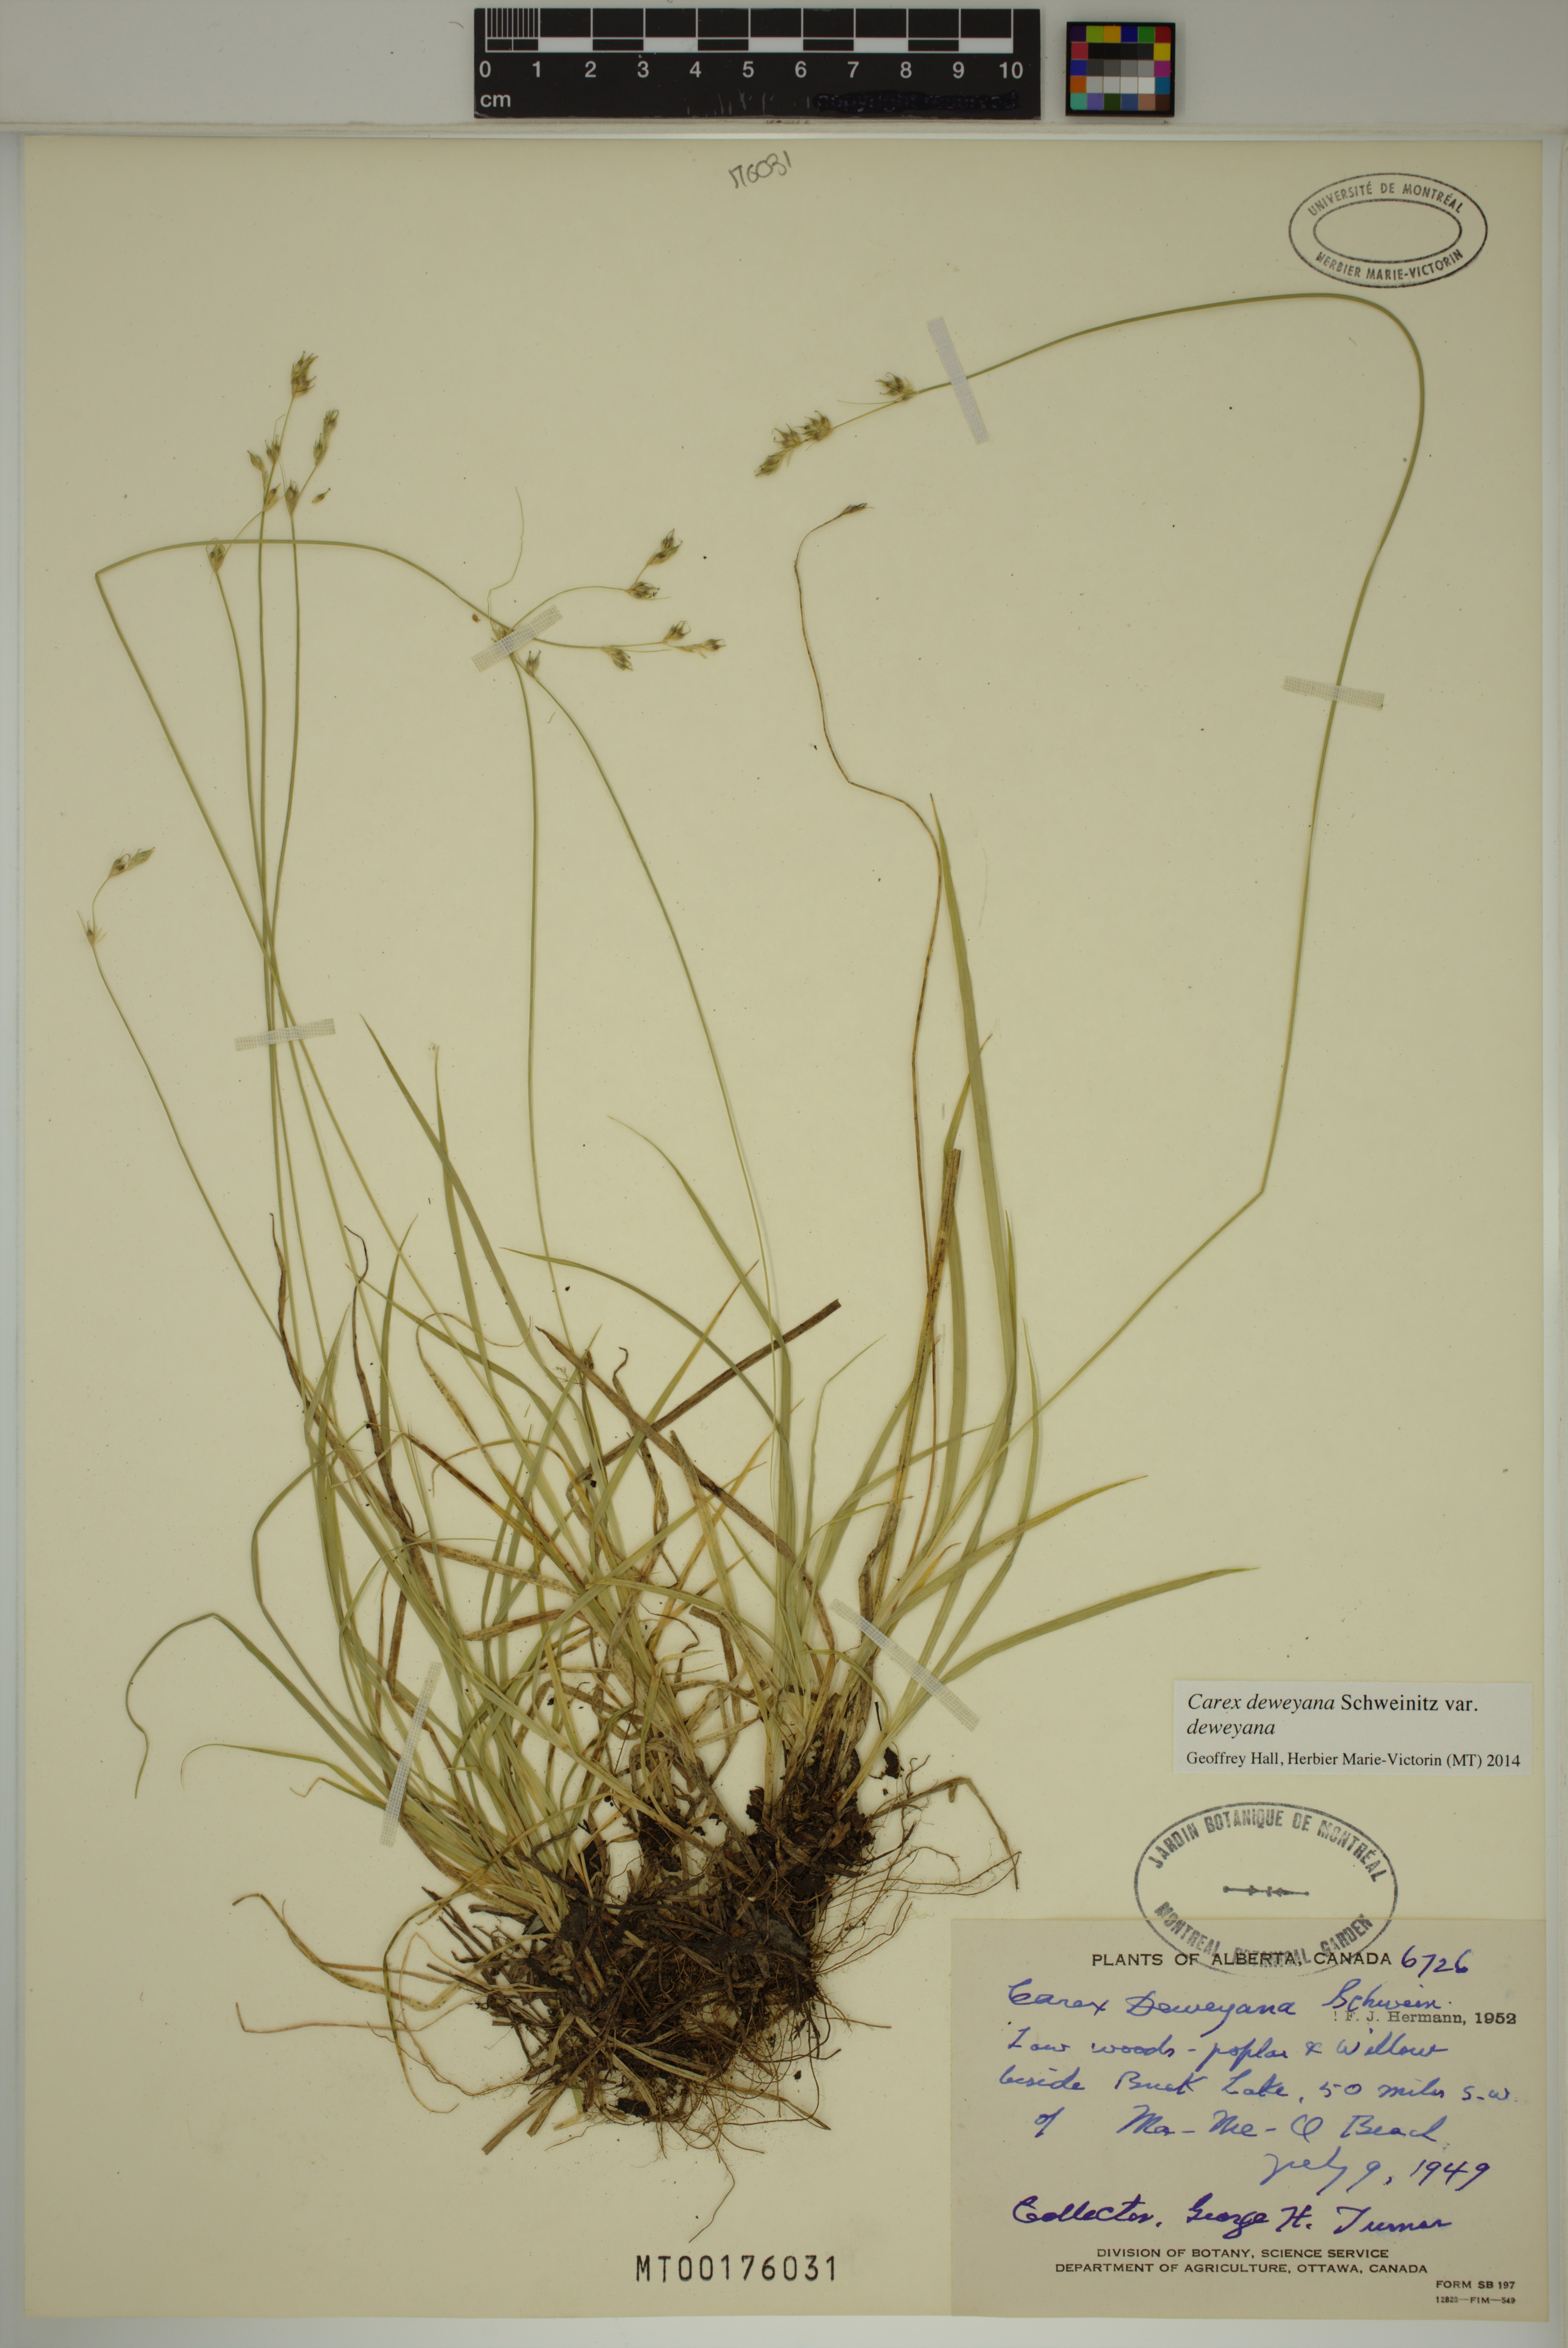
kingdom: Plantae
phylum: Tracheophyta
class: Liliopsida
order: Poales
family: Cyperaceae
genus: Carex
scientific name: Carex deweyana
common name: Dewey's sedge
